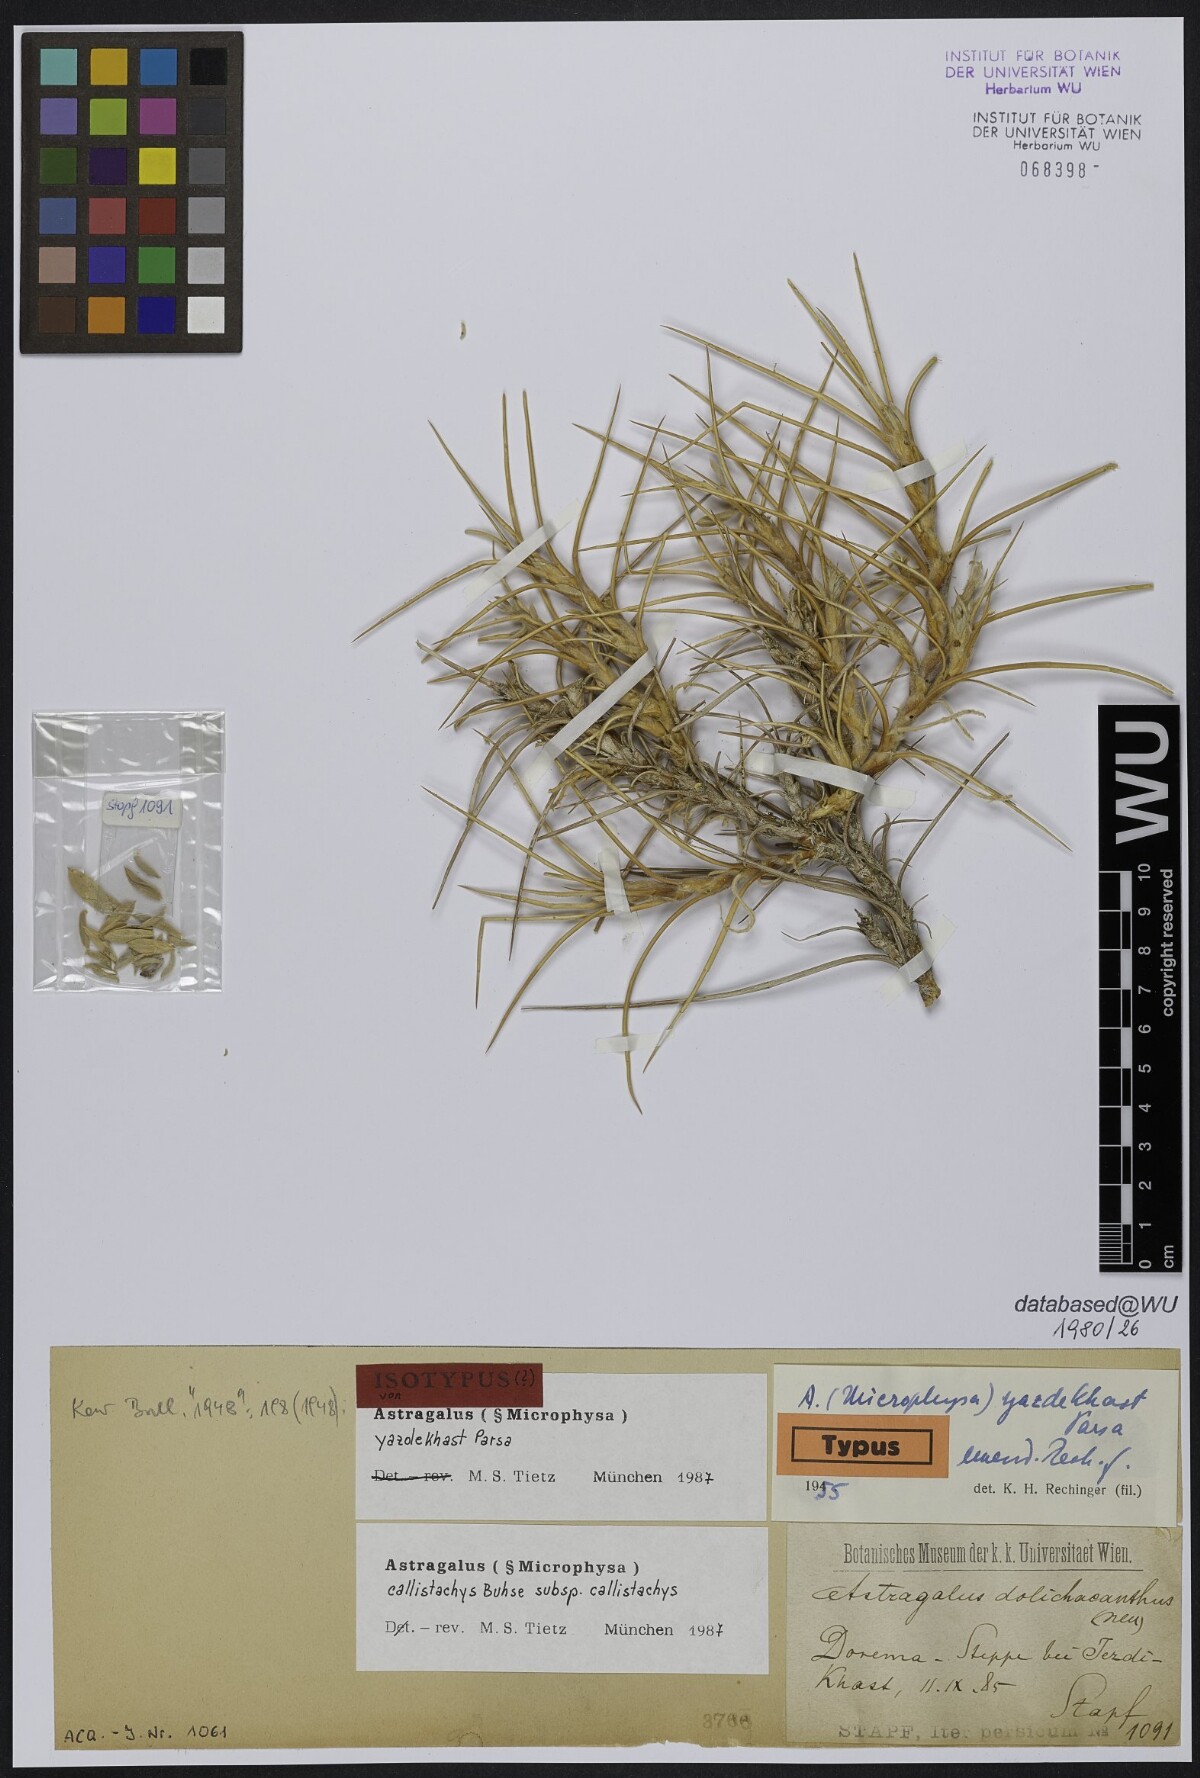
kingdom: Plantae
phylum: Tracheophyta
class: Magnoliopsida
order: Fabales
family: Fabaceae
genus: Astragalus
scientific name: Astragalus callistachys
